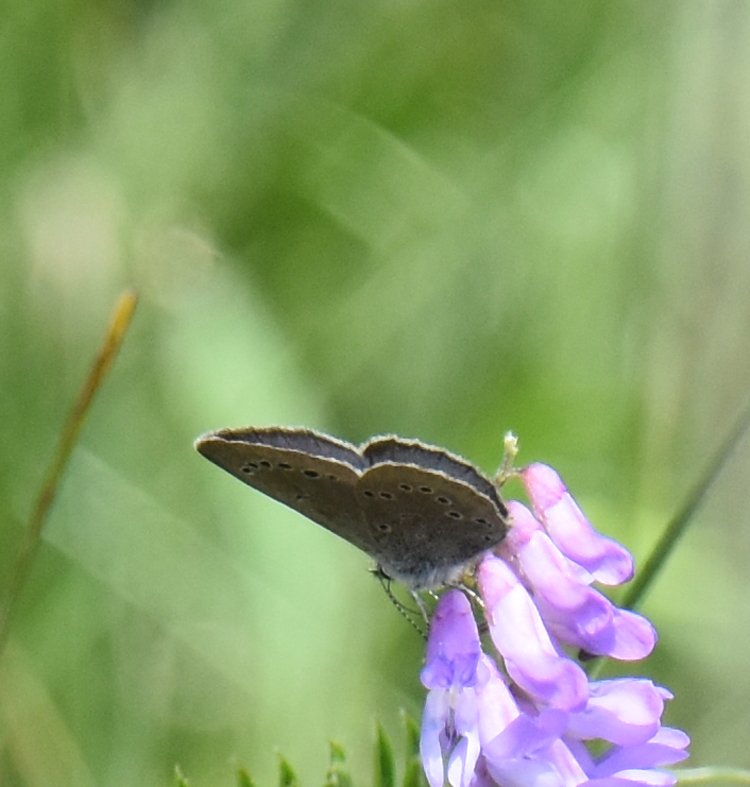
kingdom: Animalia
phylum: Arthropoda
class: Insecta
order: Lepidoptera
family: Lycaenidae
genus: Glaucopsyche
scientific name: Glaucopsyche lygdamus
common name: Silvery Blue
